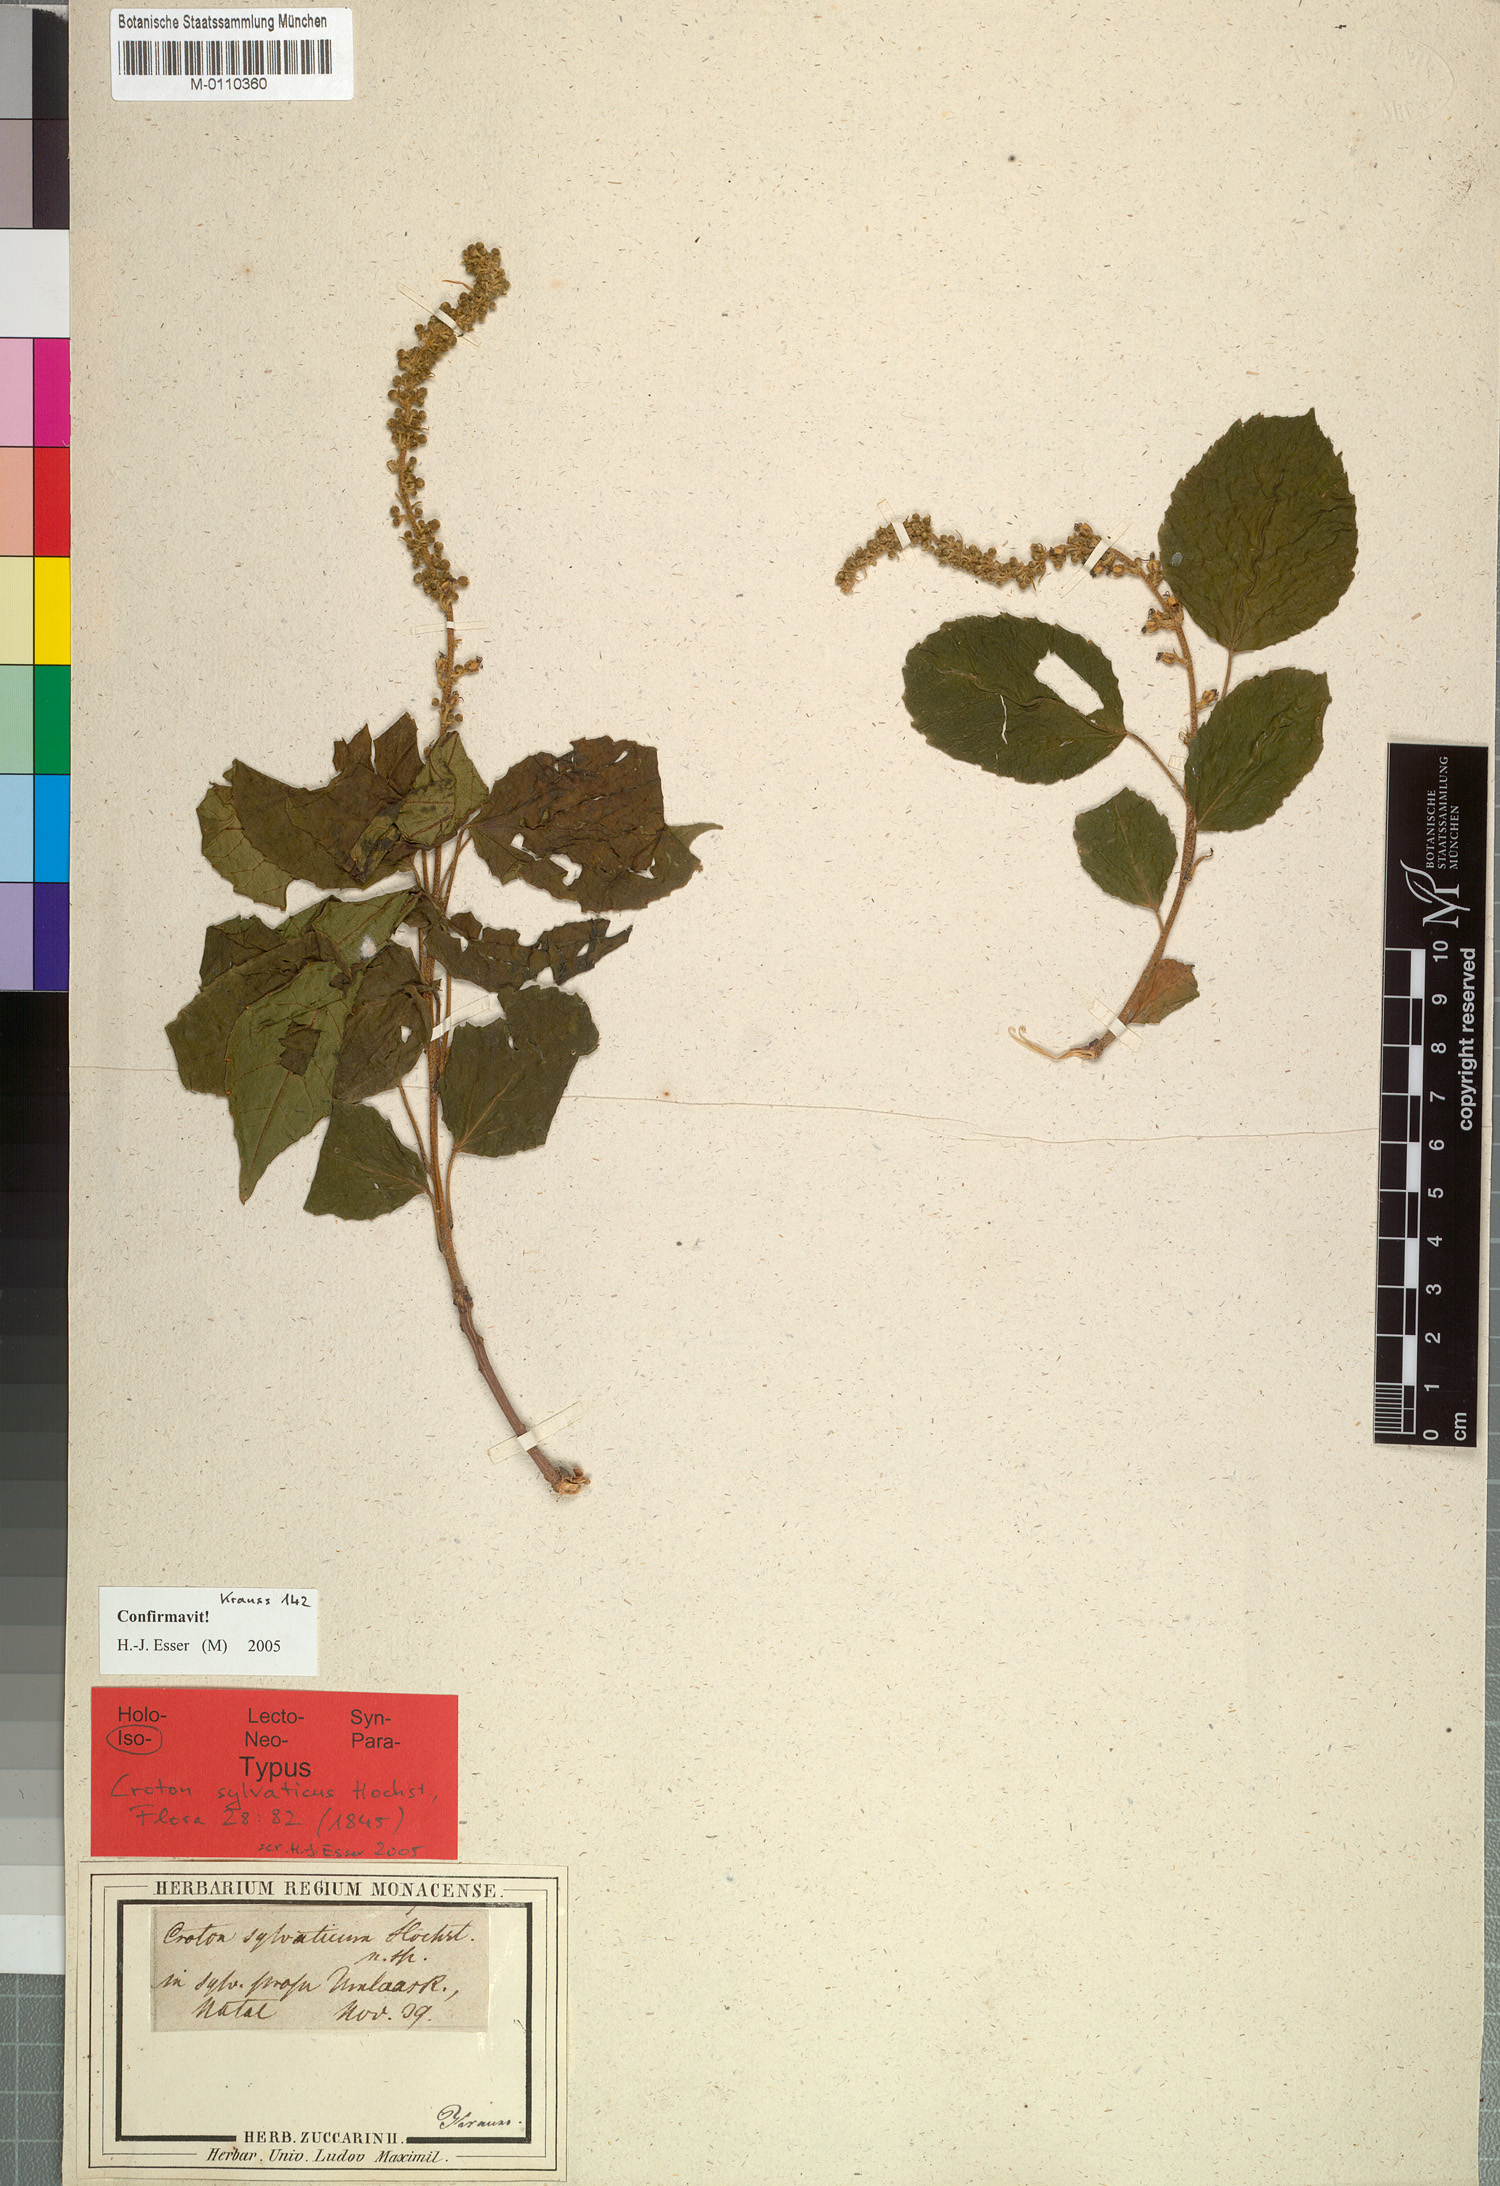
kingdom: Plantae
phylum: Tracheophyta
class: Magnoliopsida
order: Malpighiales
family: Euphorbiaceae
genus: Croton
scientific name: Croton sylvaticus
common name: Forest croton
